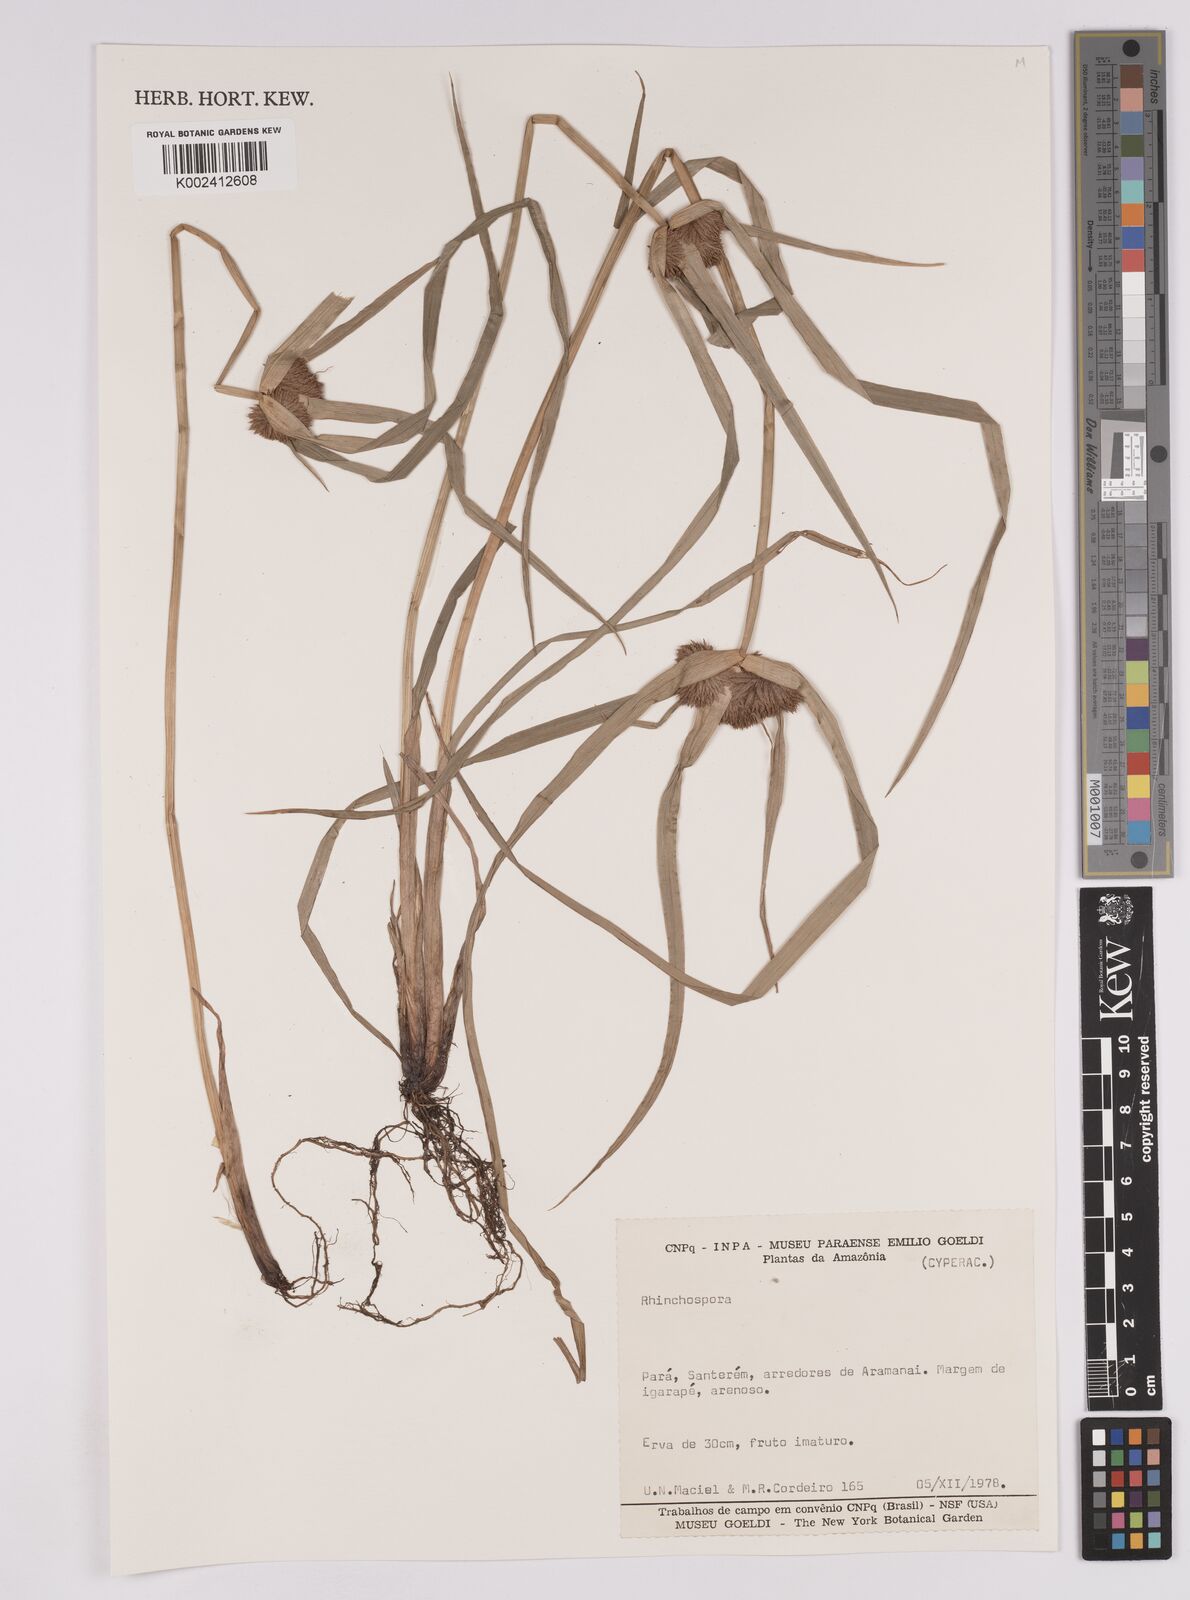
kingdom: Plantae
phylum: Tracheophyta
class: Liliopsida
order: Poales
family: Cyperaceae
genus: Rhynchospora
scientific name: Rhynchospora
